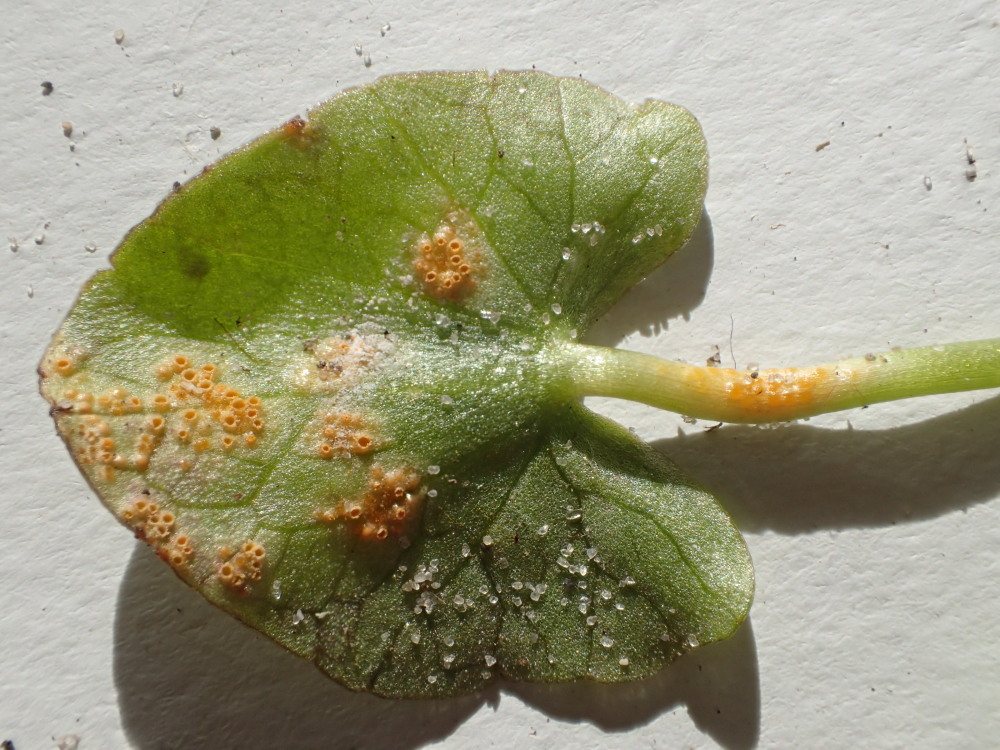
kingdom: Fungi
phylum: Basidiomycota
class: Pucciniomycetes
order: Pucciniales
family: Pucciniaceae
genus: Uromyces
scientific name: Uromyces dactylidis
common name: ranunkel-encellerust
